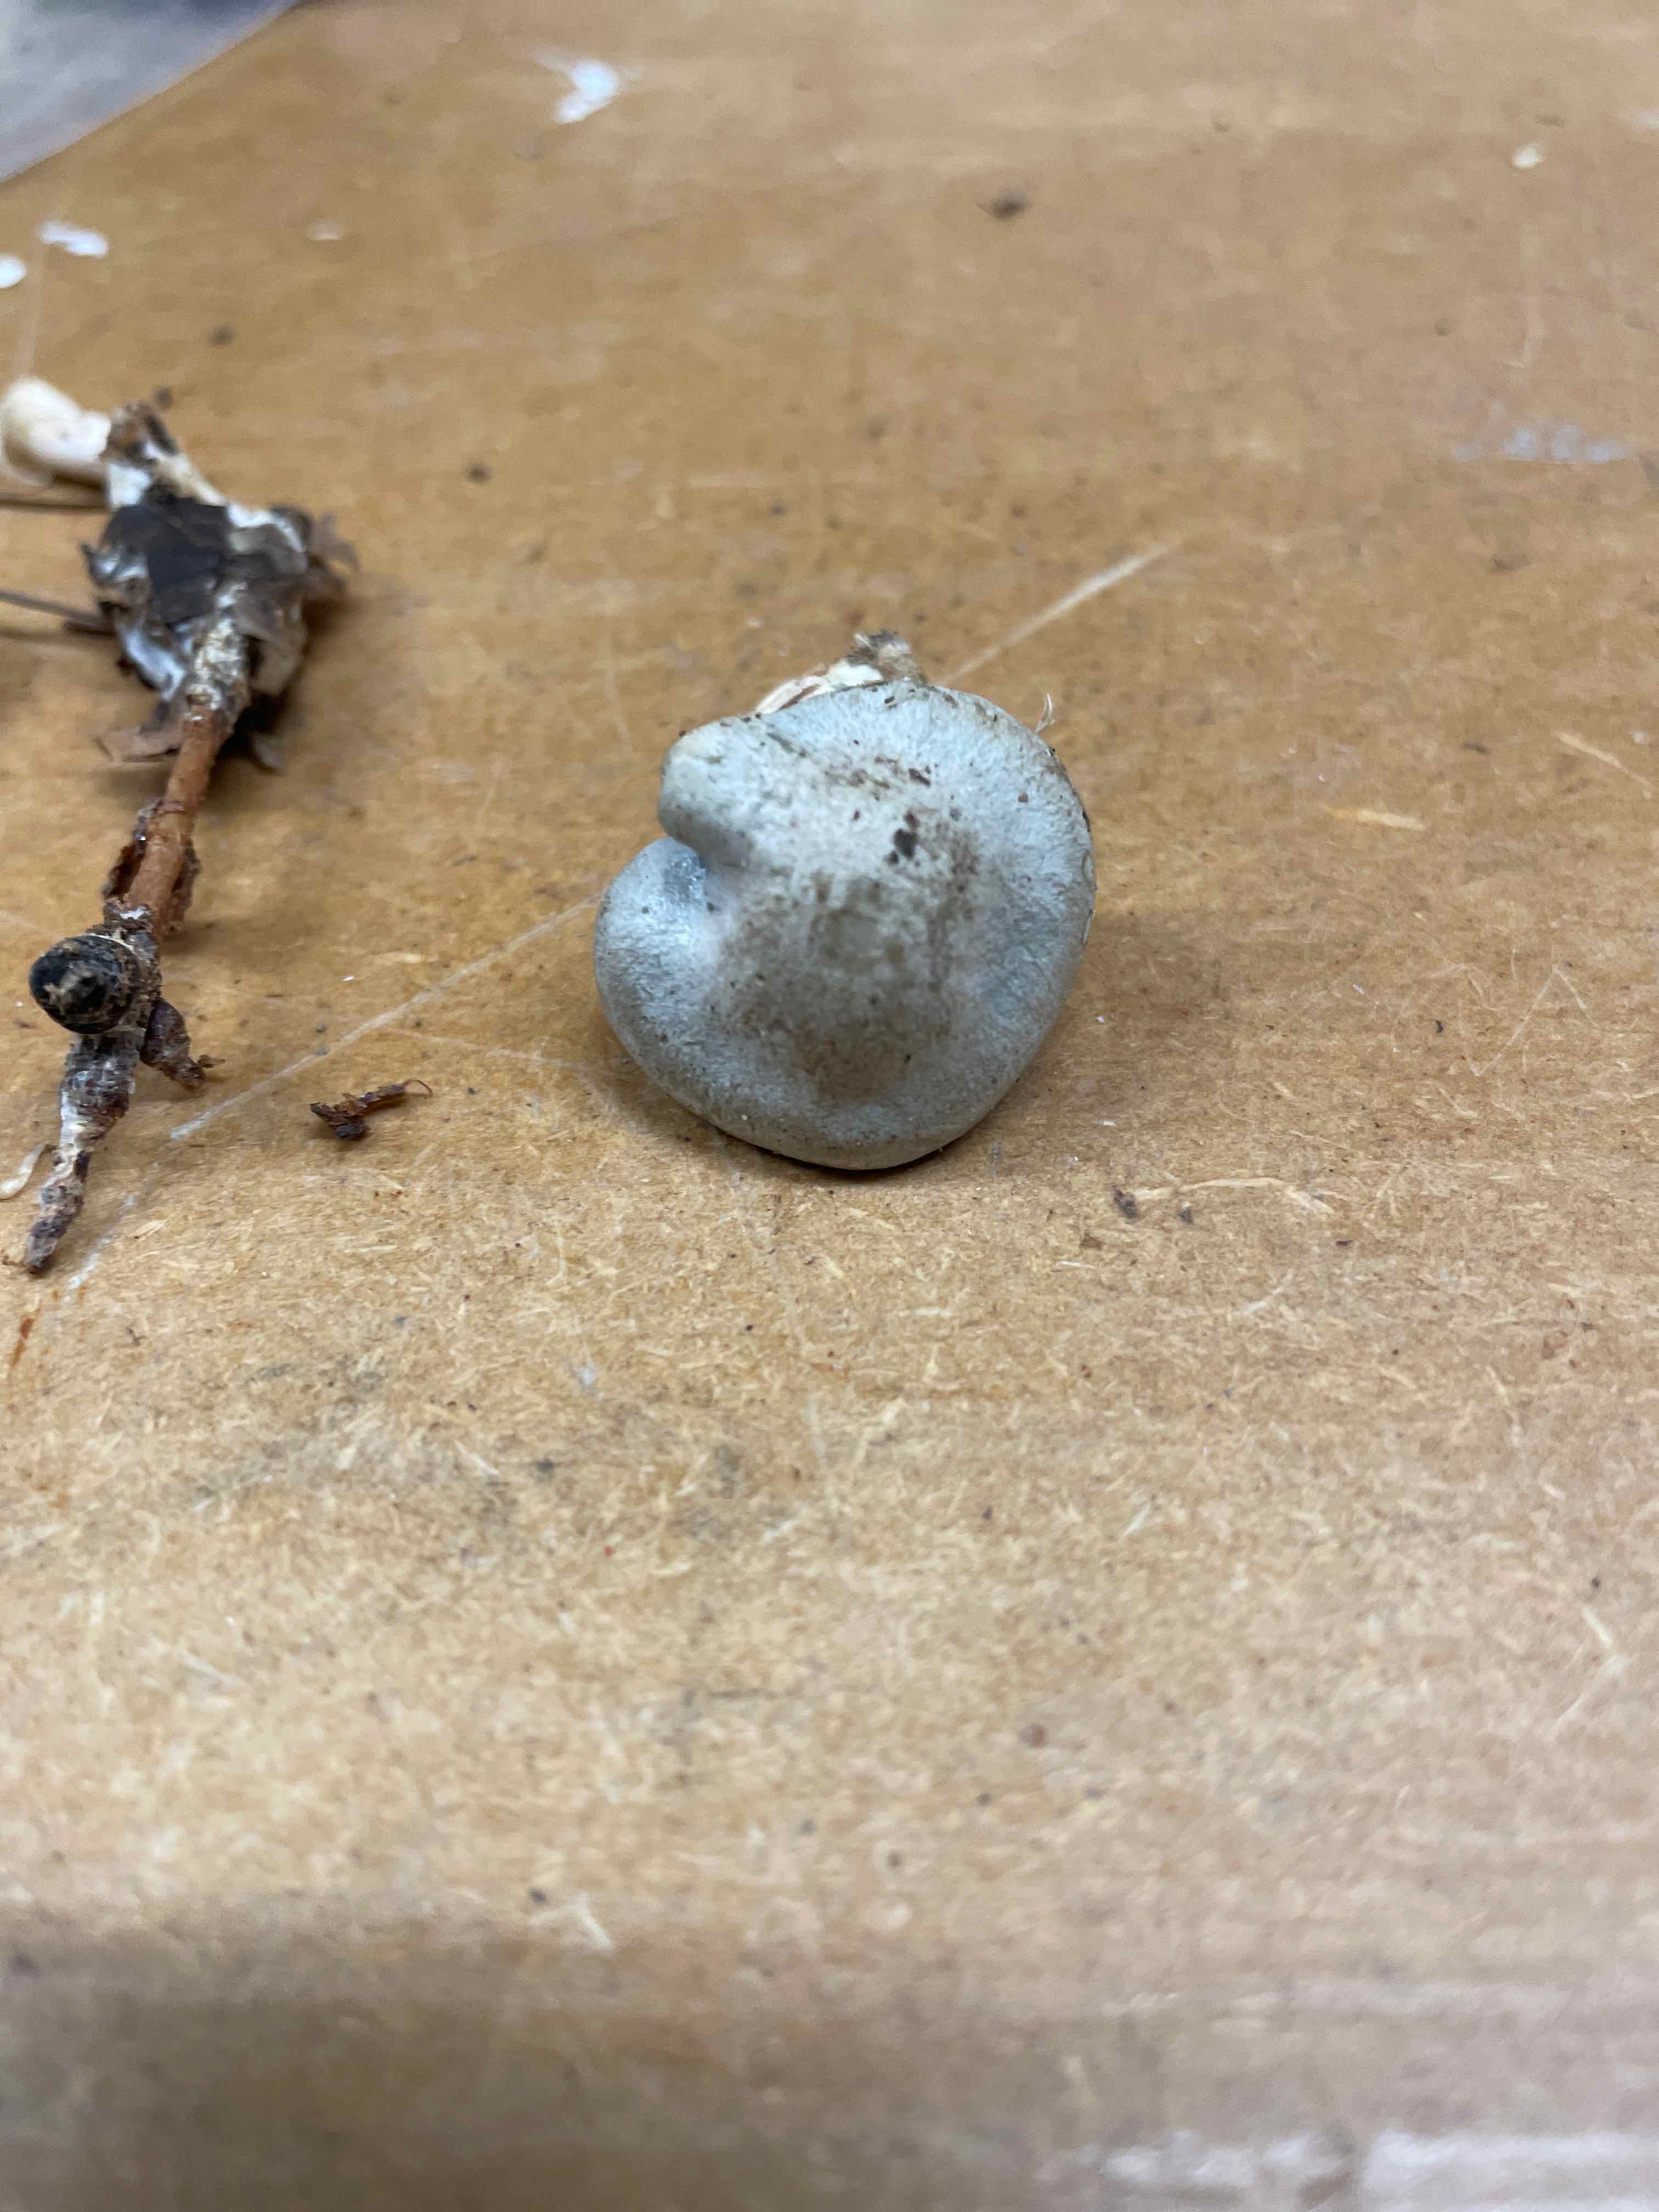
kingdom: Fungi
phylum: Basidiomycota
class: Agaricomycetes
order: Agaricales
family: Tricholomataceae
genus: Clitocybe
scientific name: Clitocybe odora
